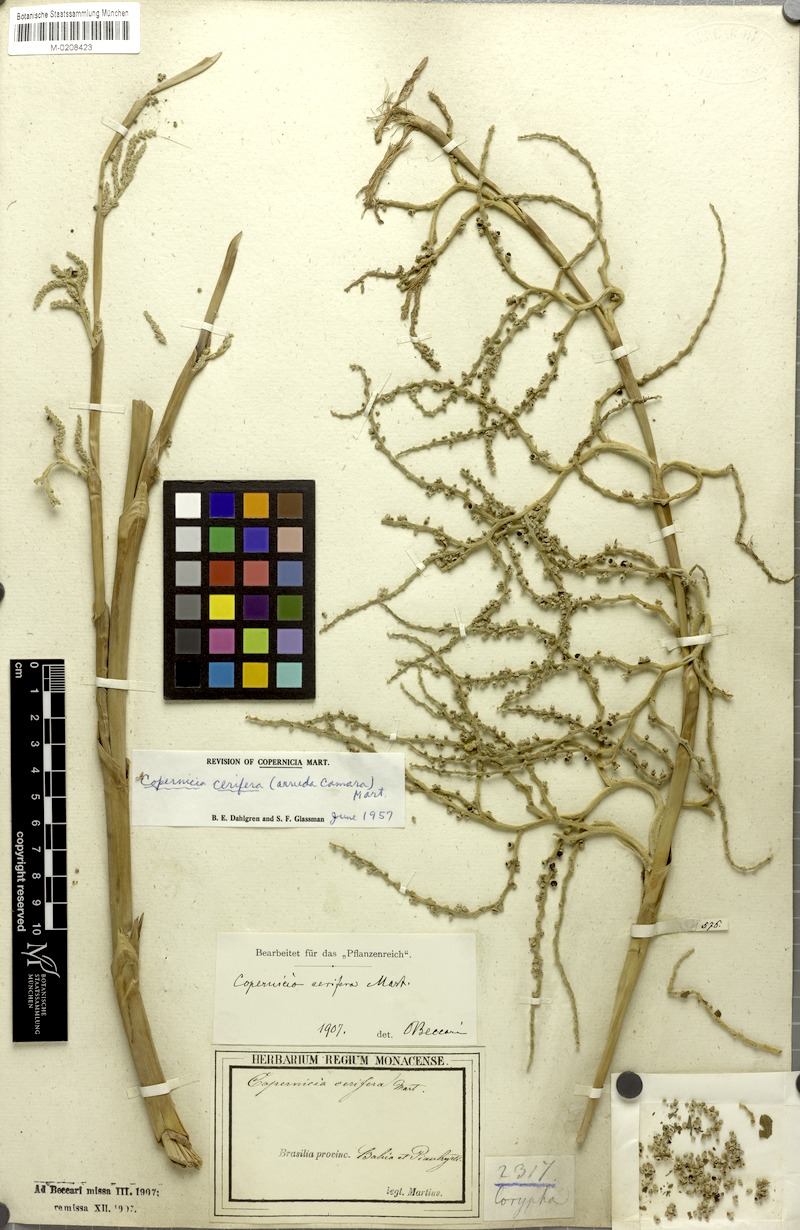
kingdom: Plantae
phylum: Tracheophyta
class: Liliopsida
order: Arecales
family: Arecaceae
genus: Copernicia
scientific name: Copernicia prunifera
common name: Carnauba palm
